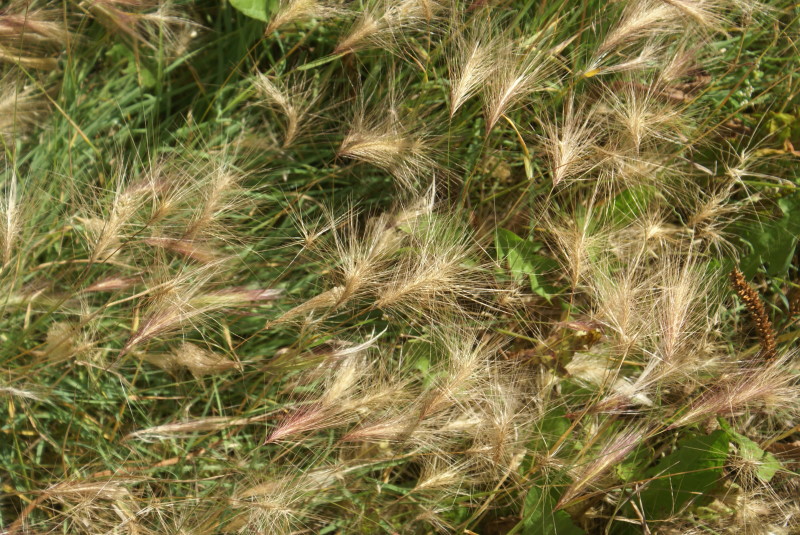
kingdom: Plantae
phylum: Tracheophyta
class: Liliopsida
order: Poales
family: Poaceae
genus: Hordeum
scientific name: Hordeum jubatum
